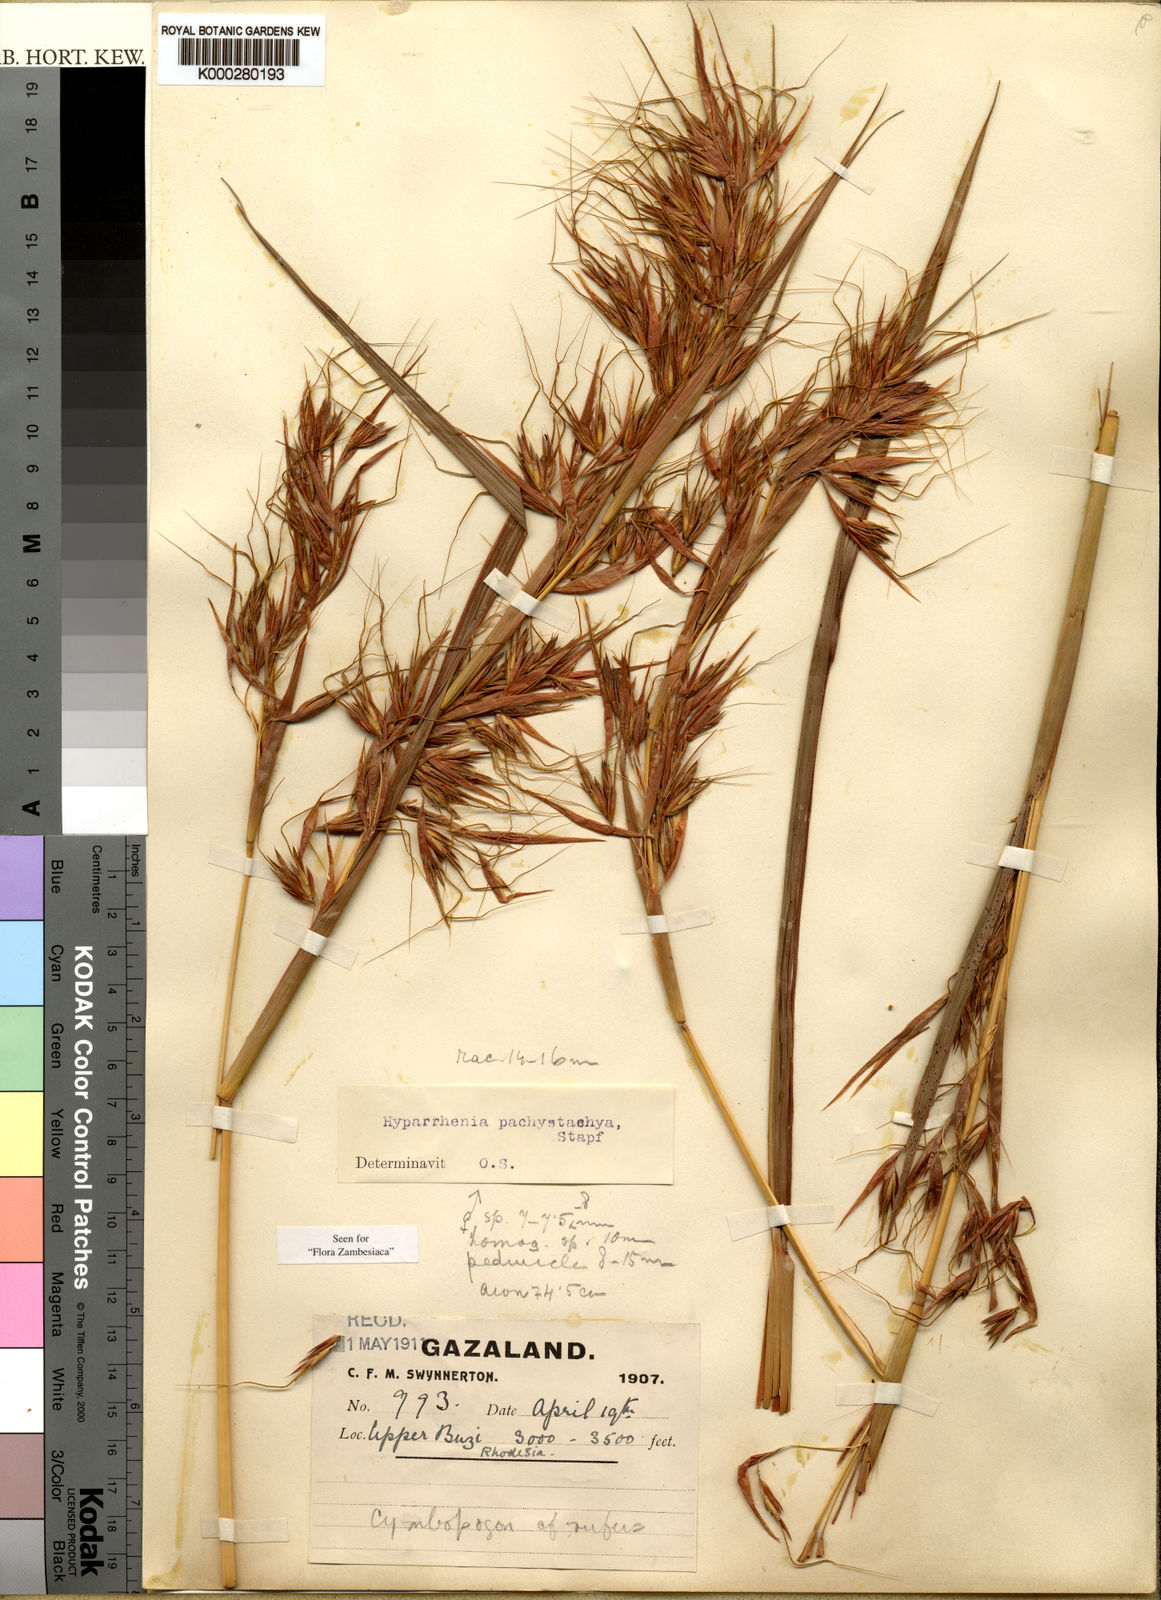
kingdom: Plantae
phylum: Tracheophyta
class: Liliopsida
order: Poales
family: Poaceae
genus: Hyparrhenia
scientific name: Hyparrhenia diplandra
